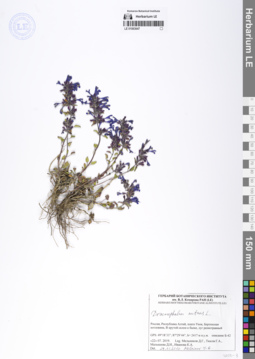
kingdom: Plantae
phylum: Tracheophyta
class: Magnoliopsida
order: Lamiales
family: Lamiaceae
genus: Dracocephalum
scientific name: Dracocephalum nutans
